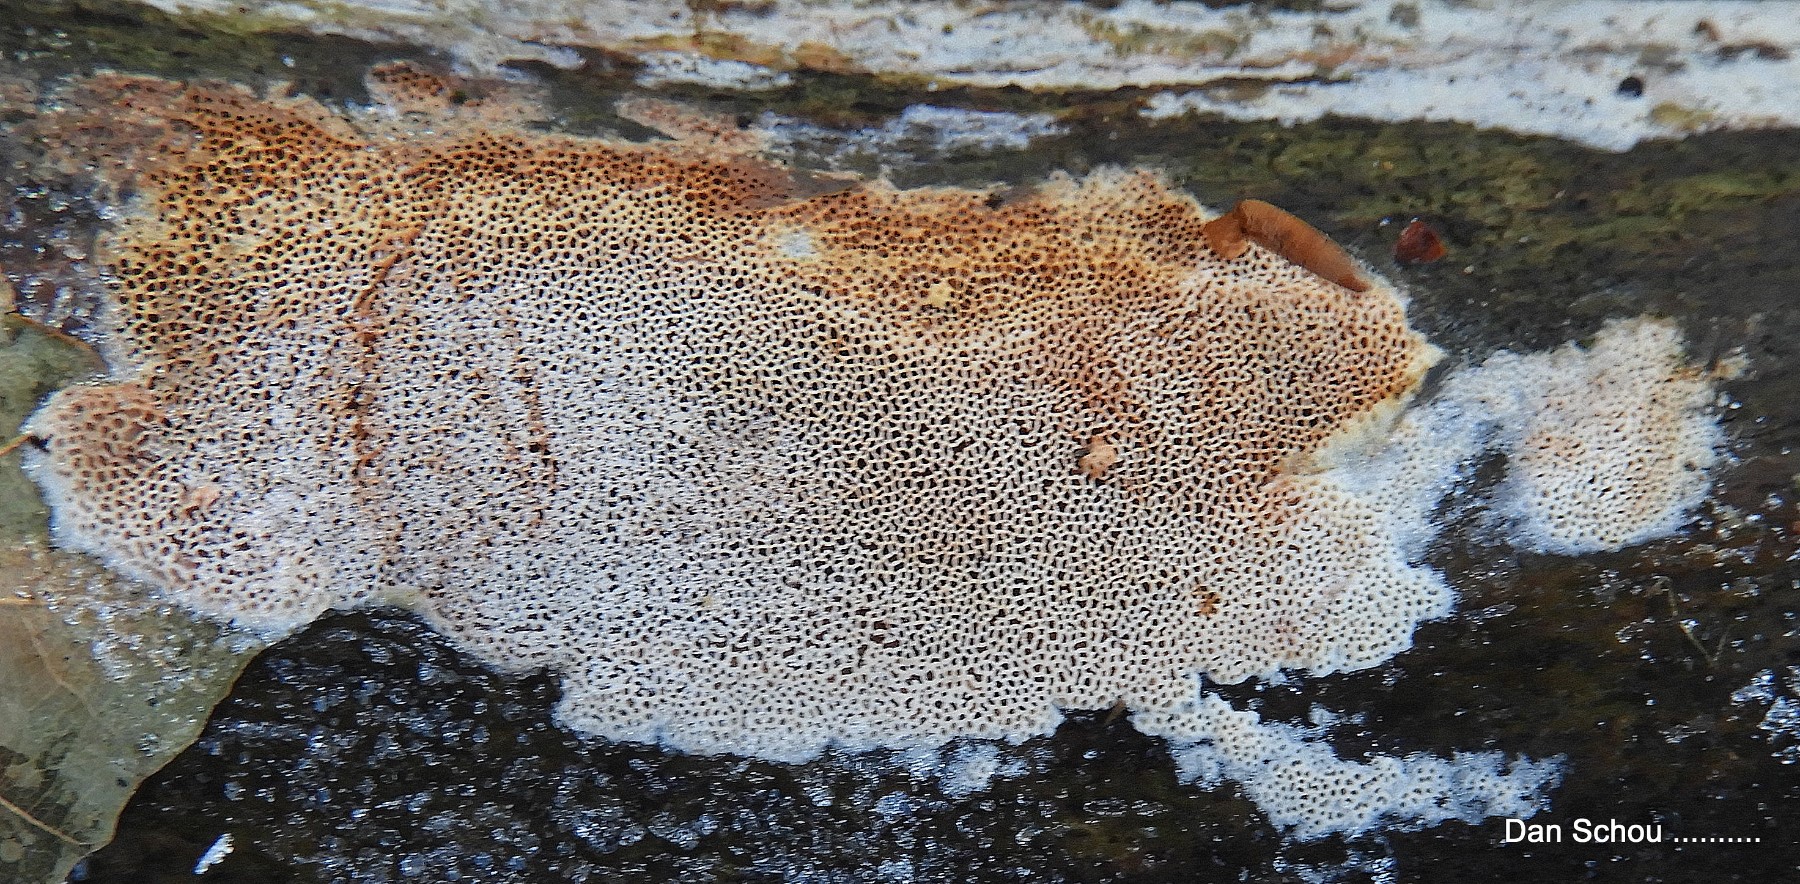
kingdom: Fungi
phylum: Basidiomycota
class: Agaricomycetes
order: Polyporales
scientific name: Polyporales
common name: poresvampordenen
